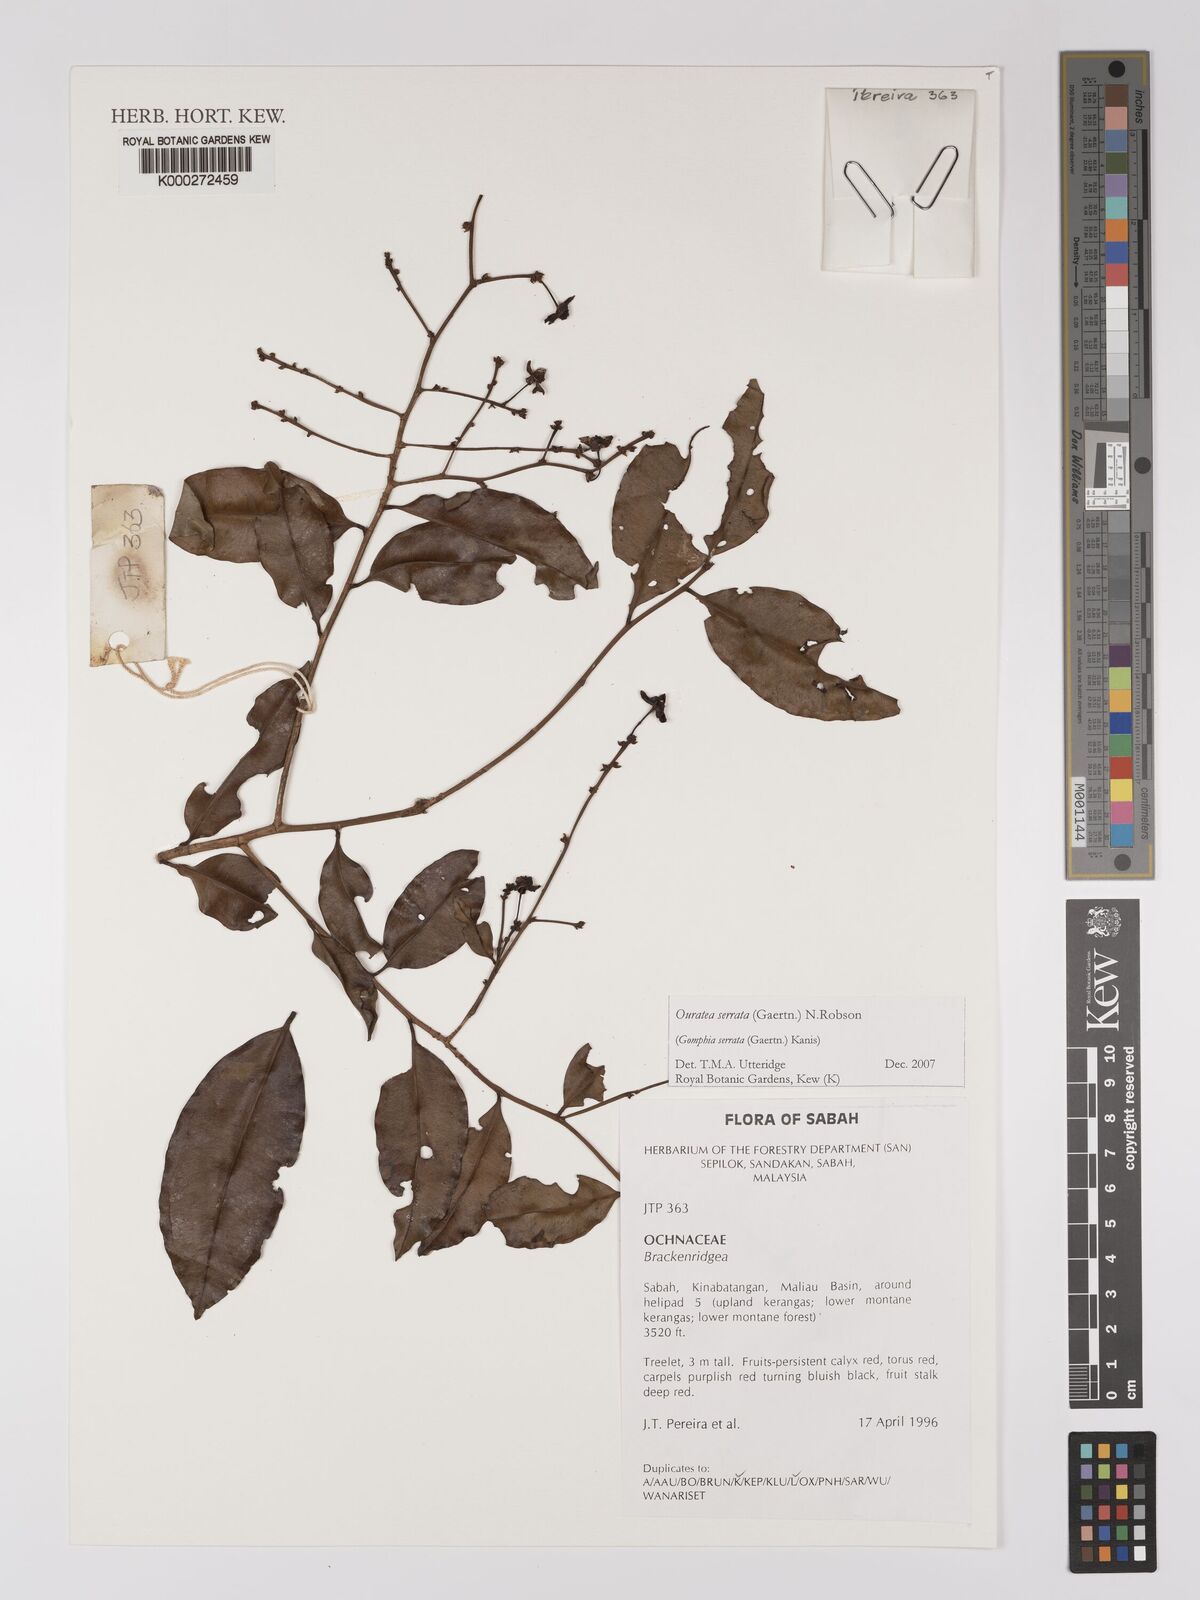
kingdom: Plantae
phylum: Tracheophyta
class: Magnoliopsida
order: Malpighiales
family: Ochnaceae
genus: Gomphia
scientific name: Gomphia serrata
